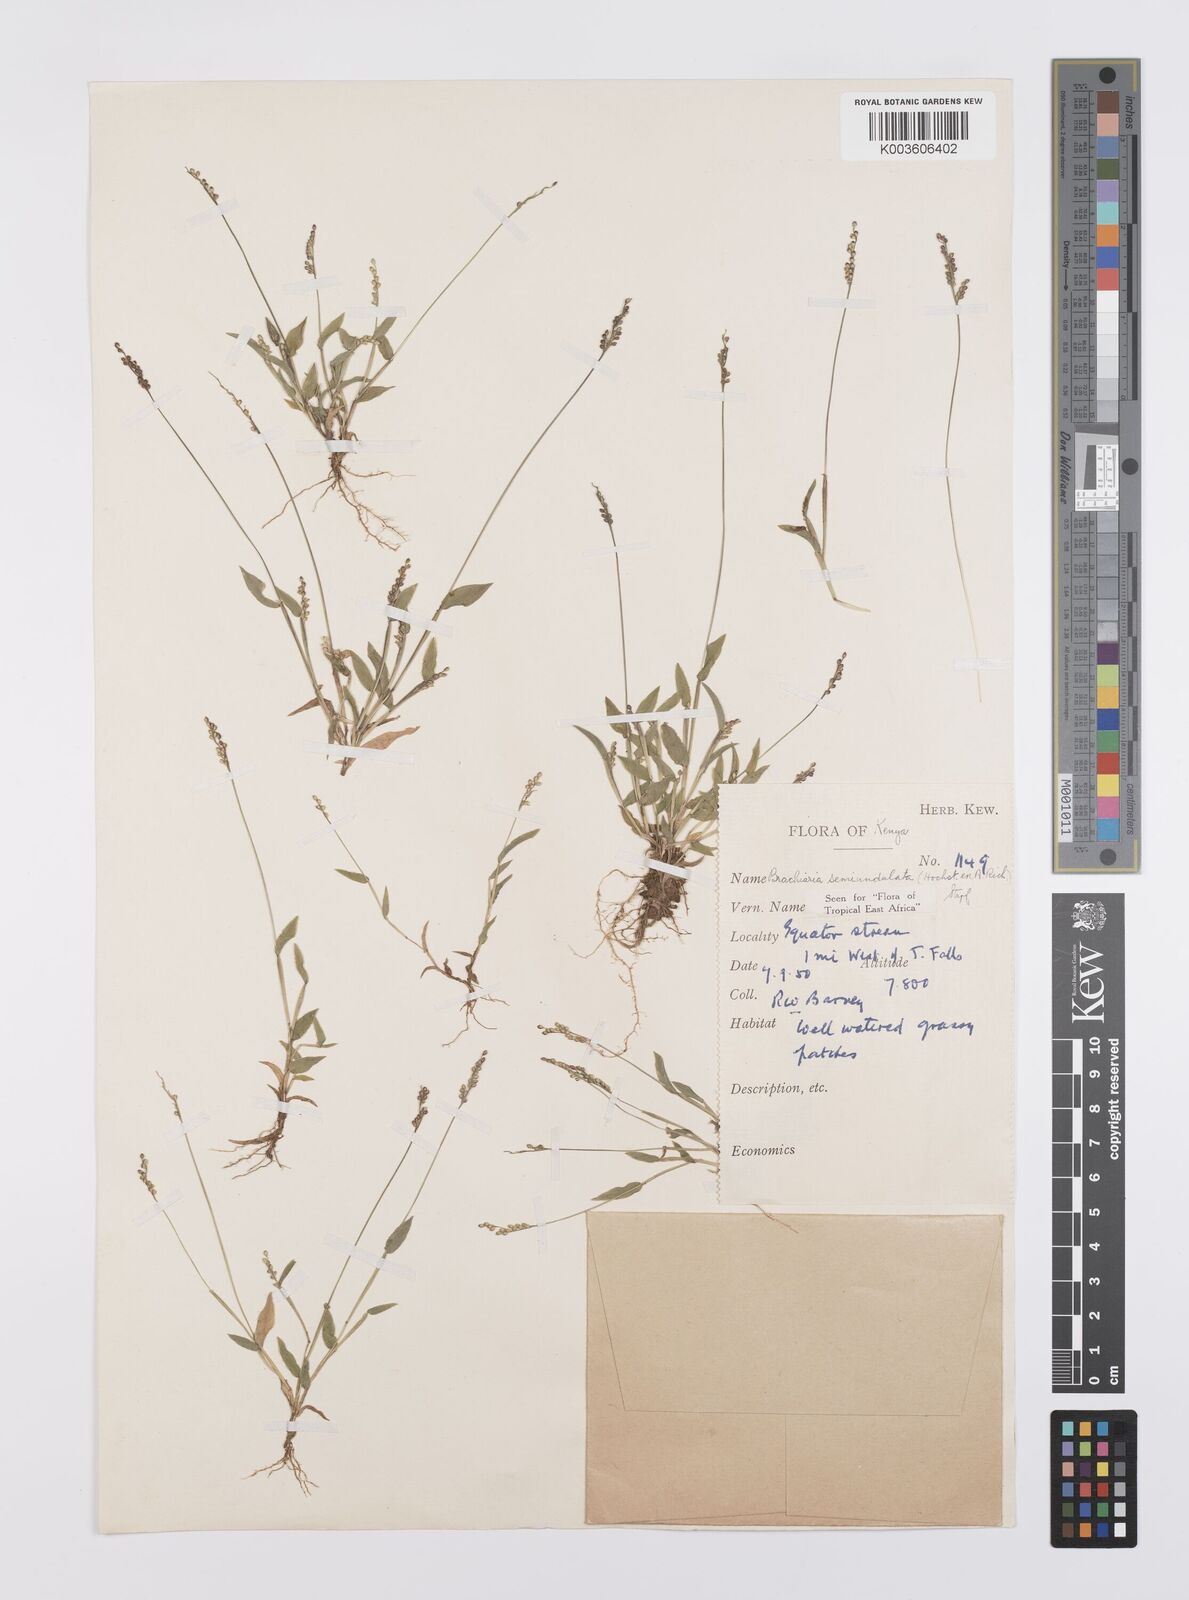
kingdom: Plantae
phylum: Tracheophyta
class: Liliopsida
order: Poales
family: Poaceae
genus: Urochloa
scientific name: Urochloa semiundulata
